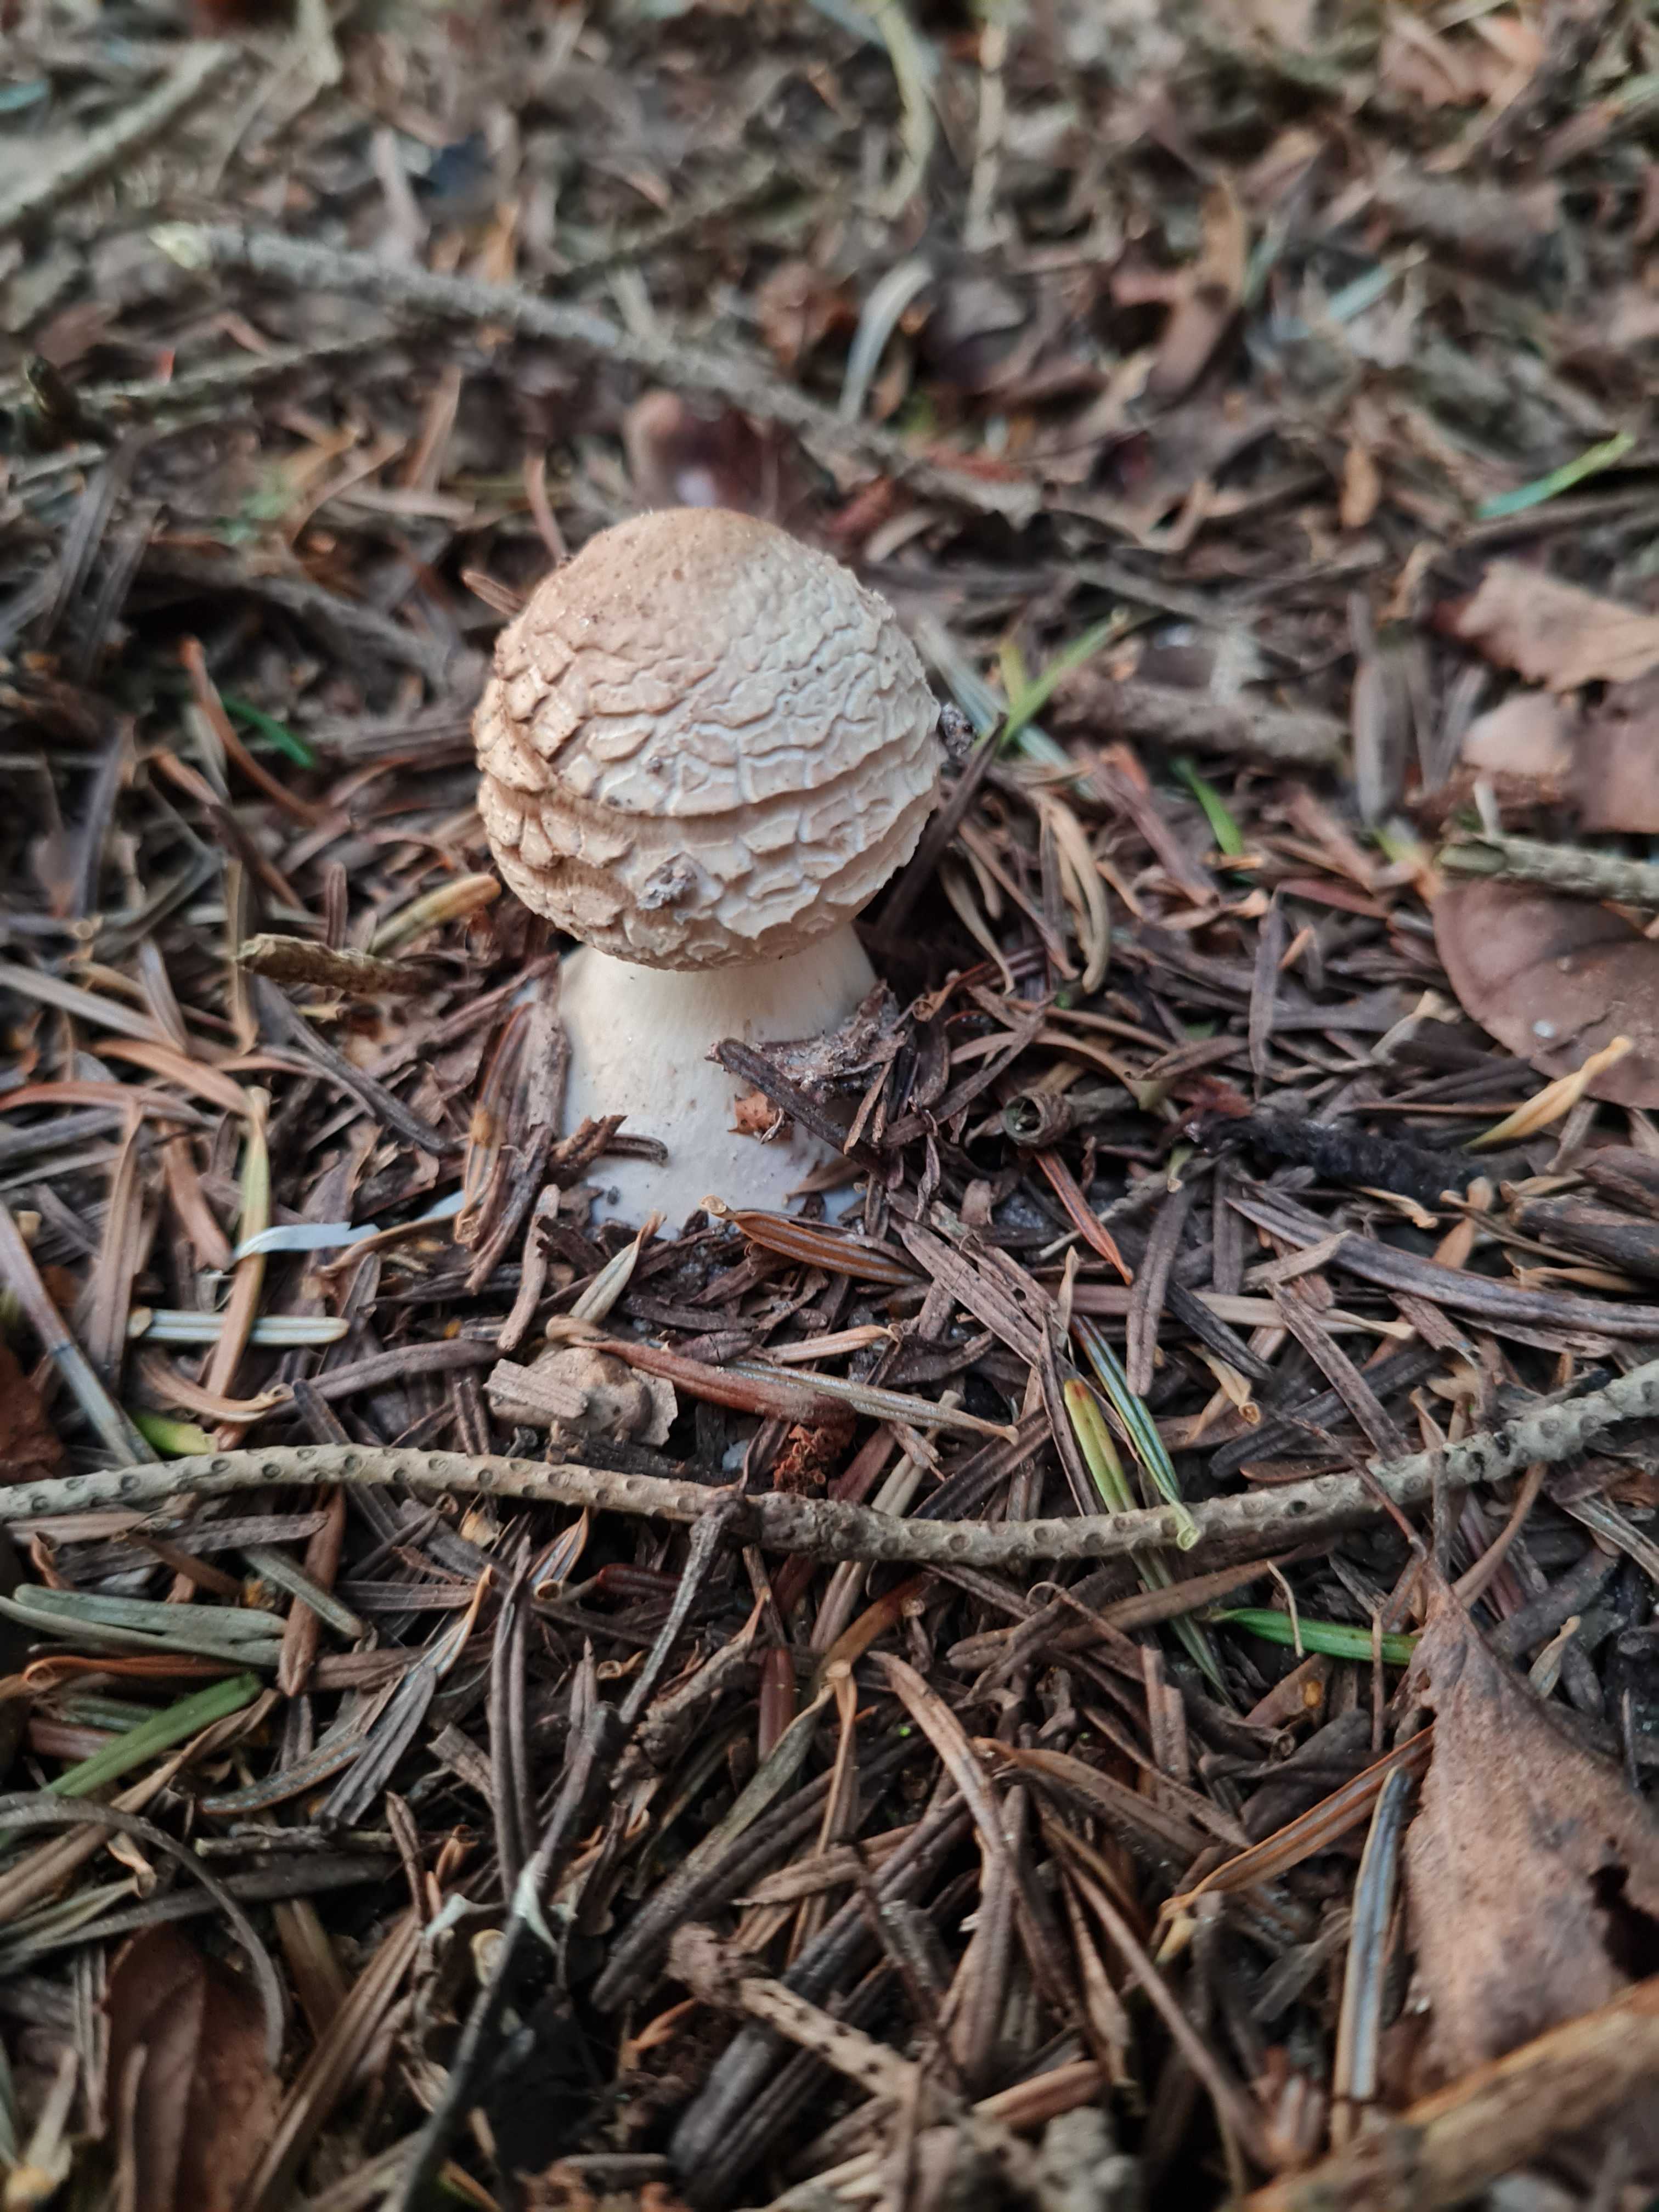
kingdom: Fungi
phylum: Basidiomycota
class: Agaricomycetes
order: Agaricales
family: Agaricaceae
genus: Chlorophyllum
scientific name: Chlorophyllum
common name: rabarberhat
